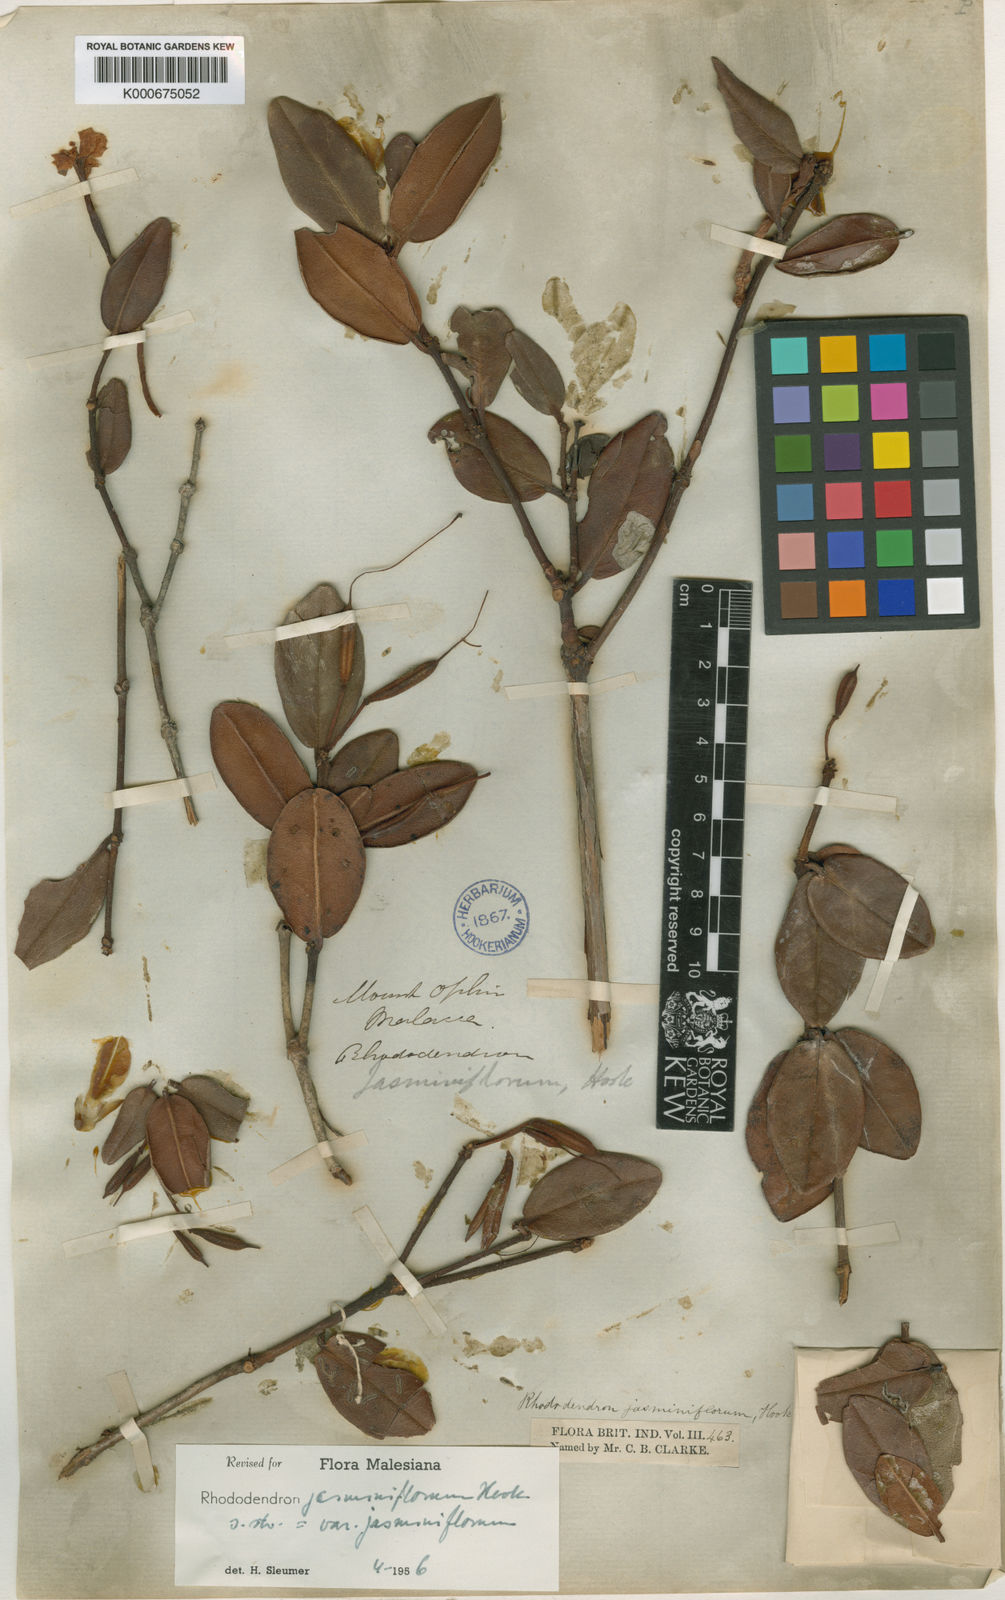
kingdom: Plantae
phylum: Tracheophyta
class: Magnoliopsida
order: Ericales
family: Ericaceae
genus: Rhododendron
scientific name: Rhododendron jasminiflorum
